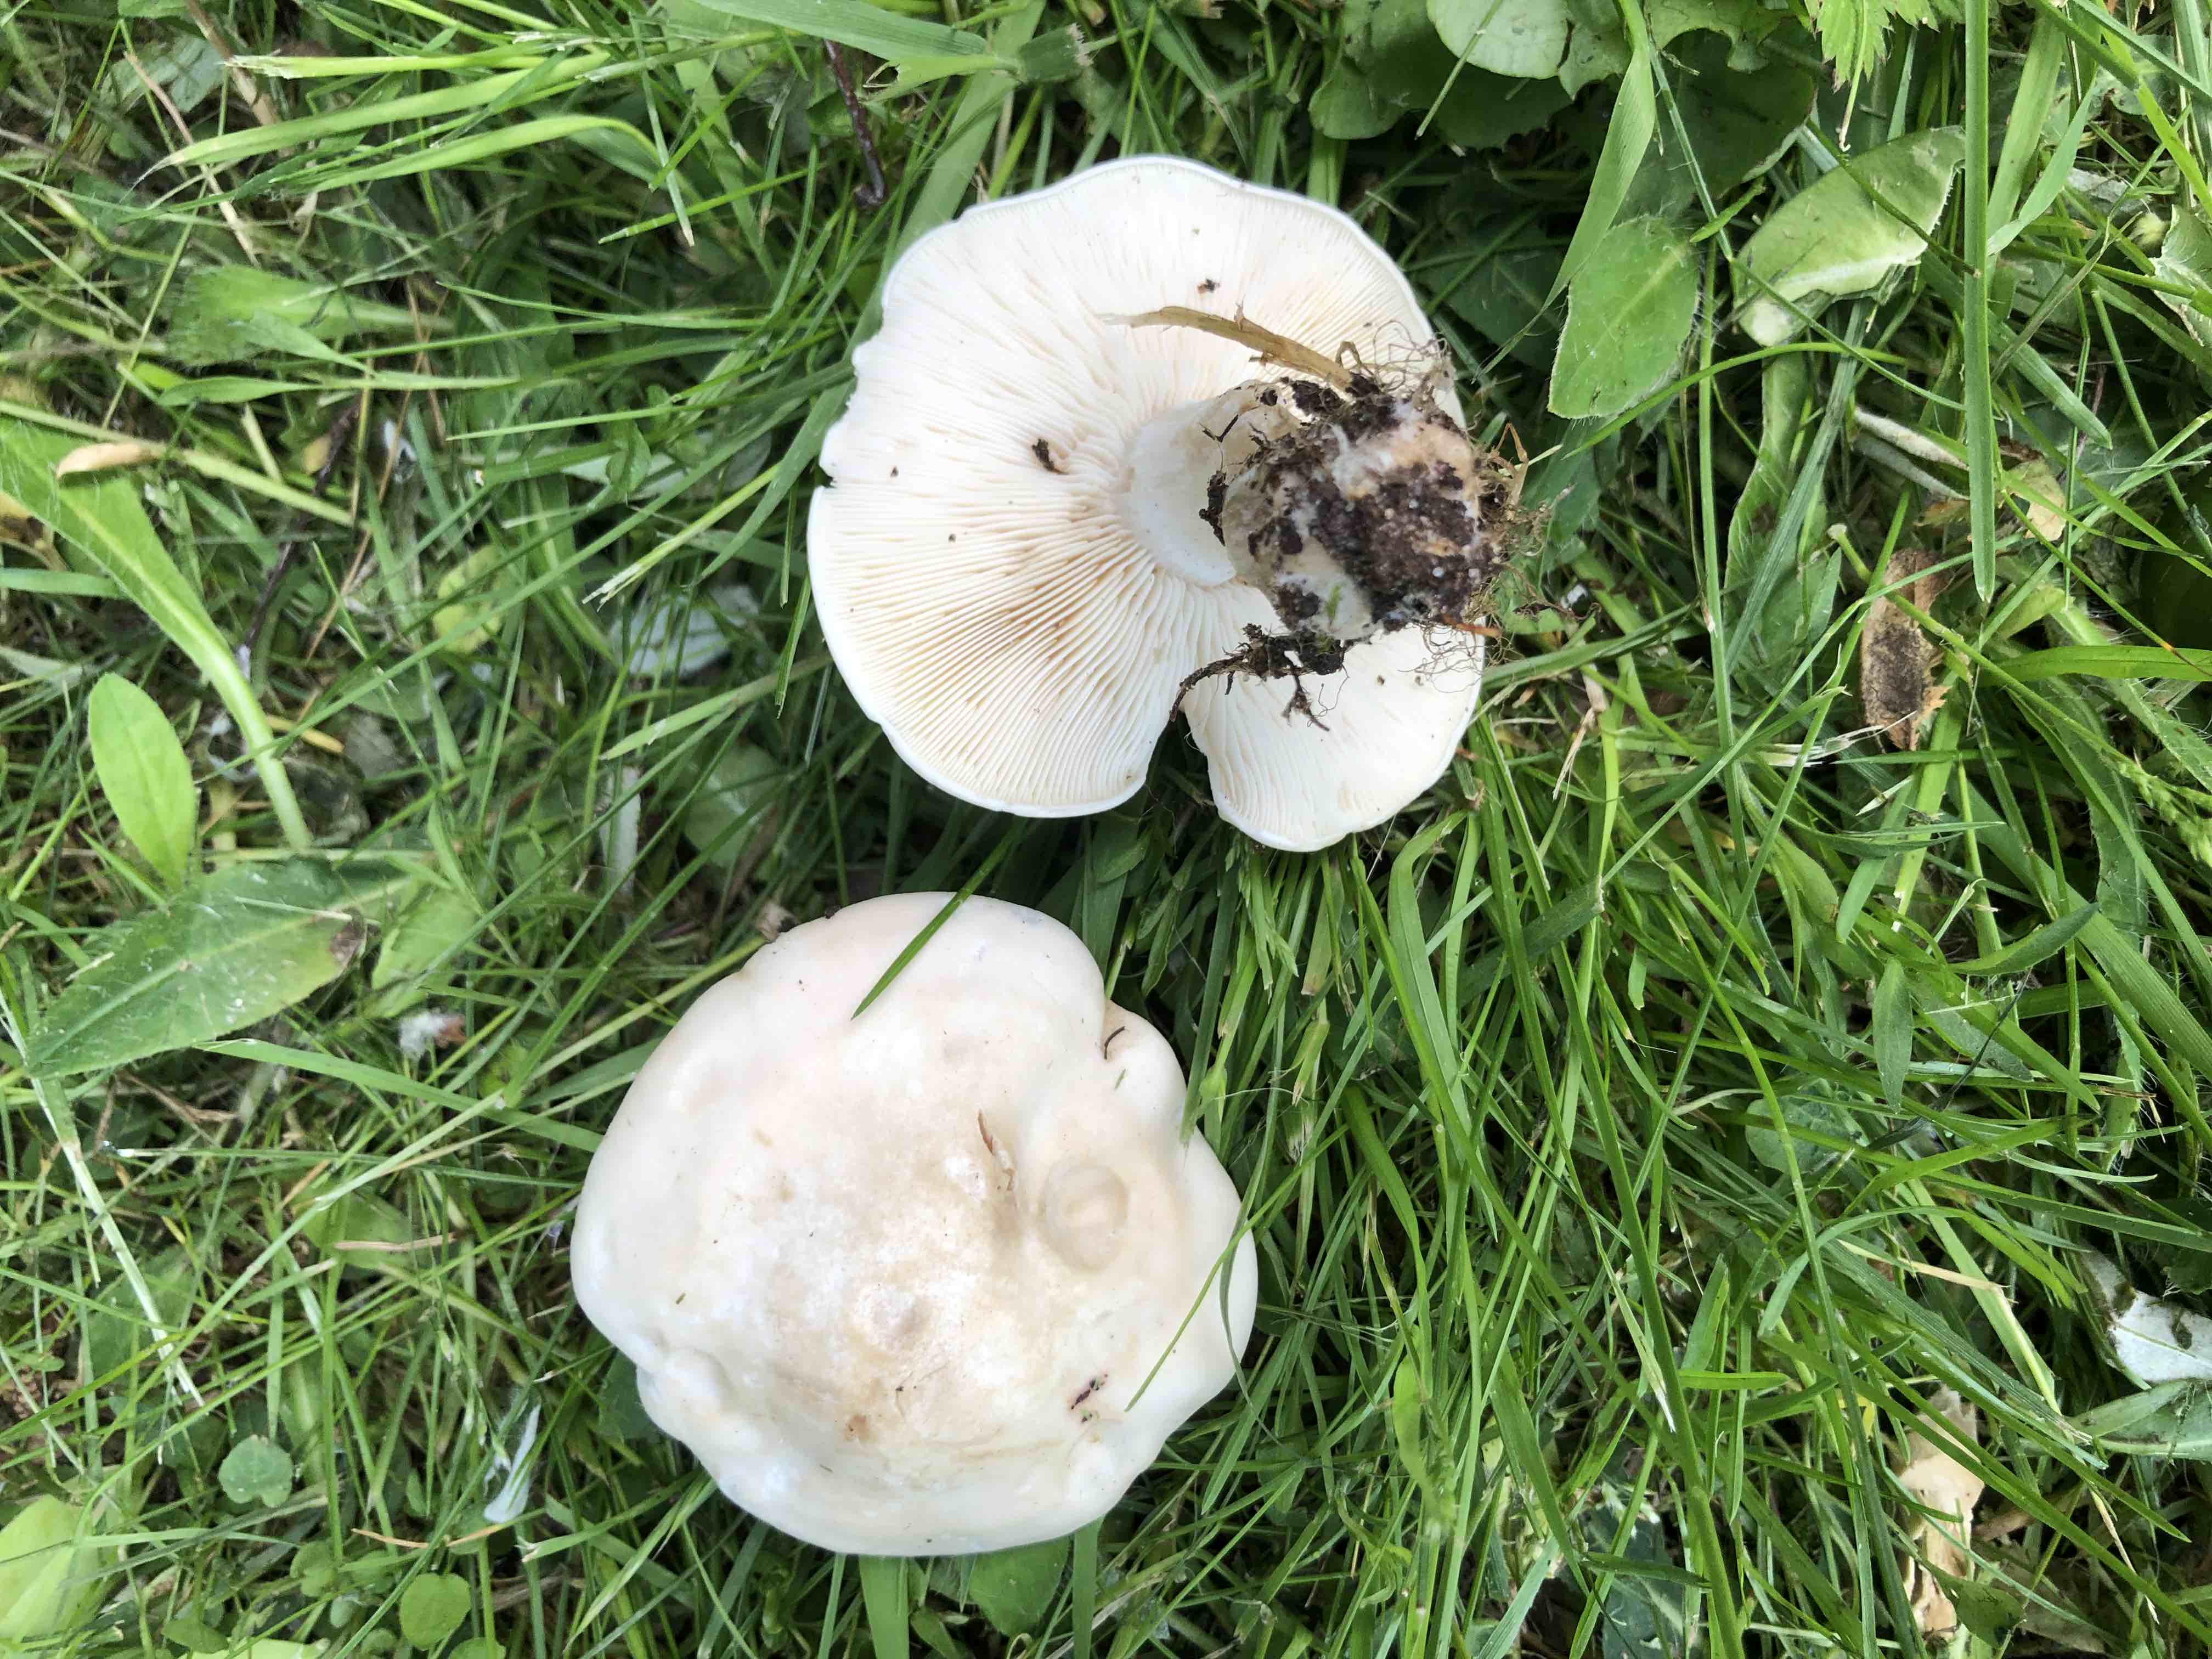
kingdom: Fungi
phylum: Basidiomycota
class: Agaricomycetes
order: Agaricales
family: Lyophyllaceae
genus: Calocybe
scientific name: Calocybe gambosa
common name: vårmusseron
